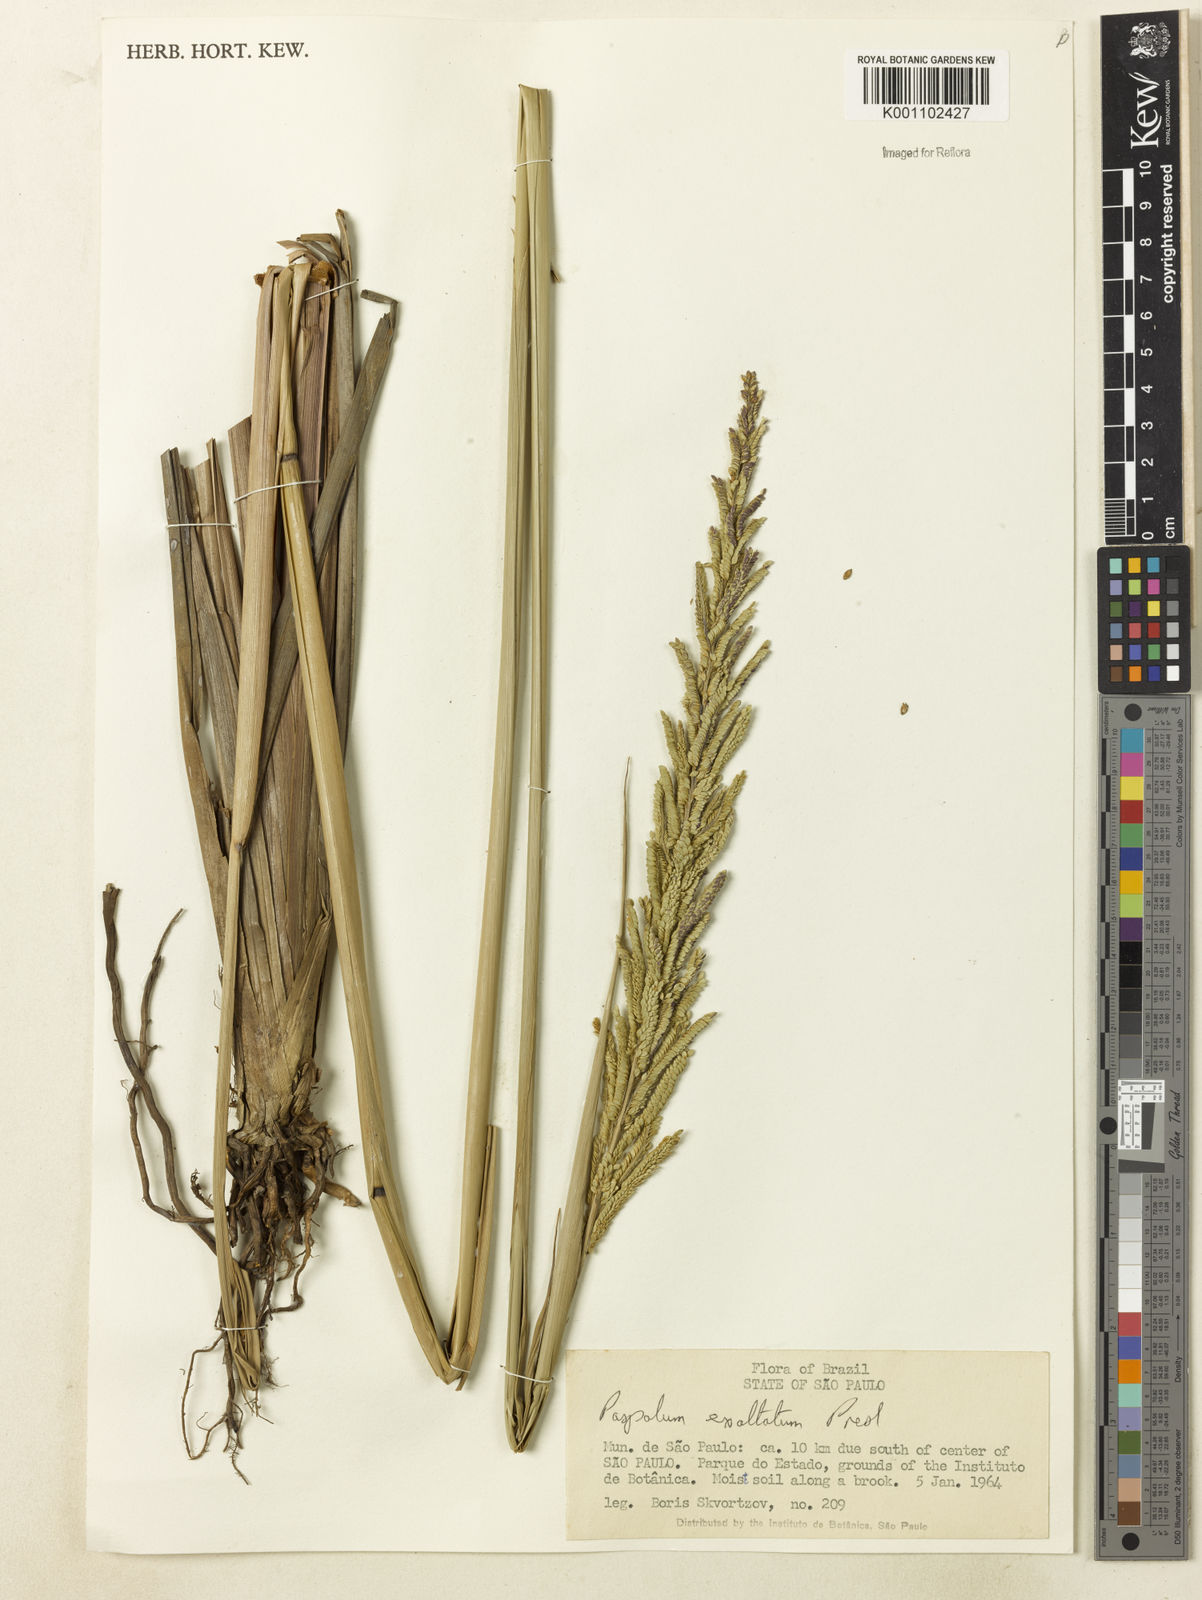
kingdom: Plantae
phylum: Tracheophyta
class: Liliopsida
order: Poales
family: Poaceae
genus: Paspalum
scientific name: Paspalum exaltatum
